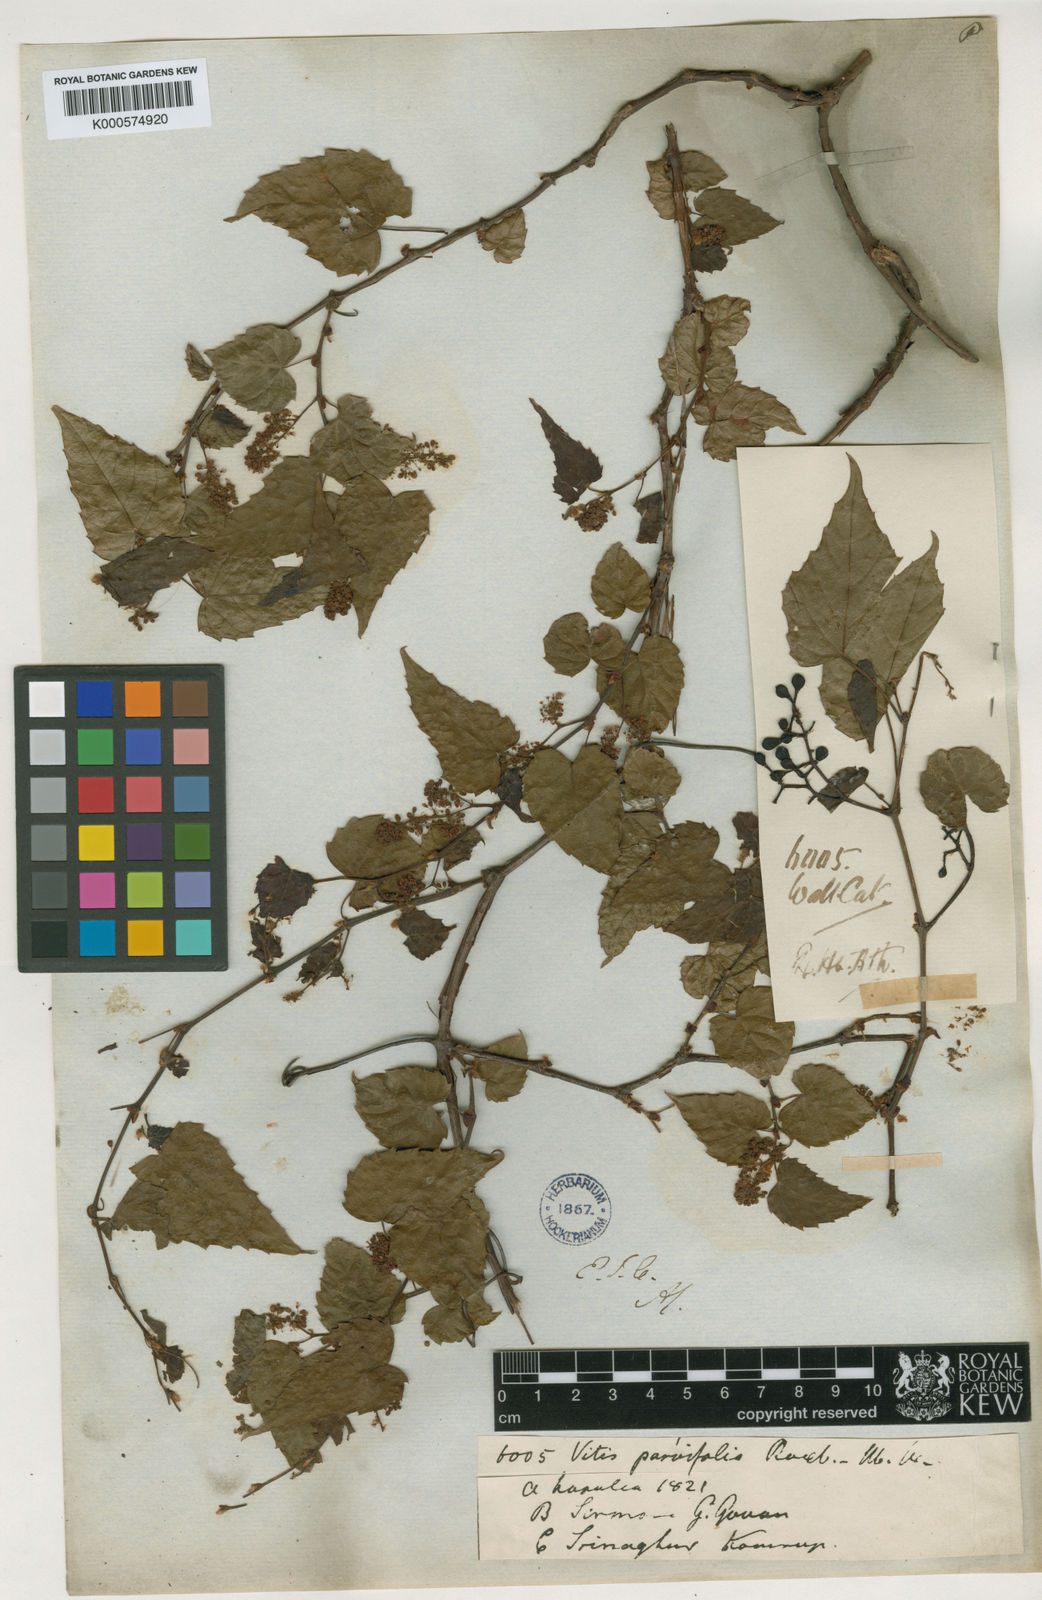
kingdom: Plantae
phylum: Tracheophyta
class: Magnoliopsida
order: Vitales
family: Vitaceae
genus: Vitis
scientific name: Vitis flexuosa
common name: Creeping grape
